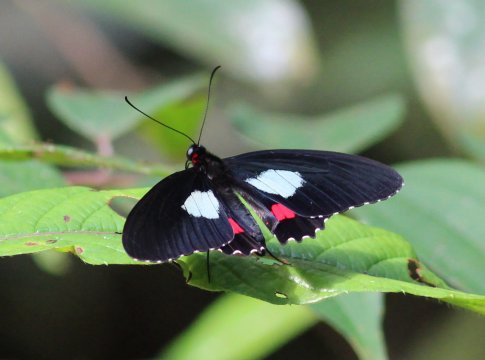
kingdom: Animalia
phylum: Arthropoda
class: Insecta
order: Lepidoptera
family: Papilionidae
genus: Parides
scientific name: Parides erithalion
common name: Variable Cattleheart
